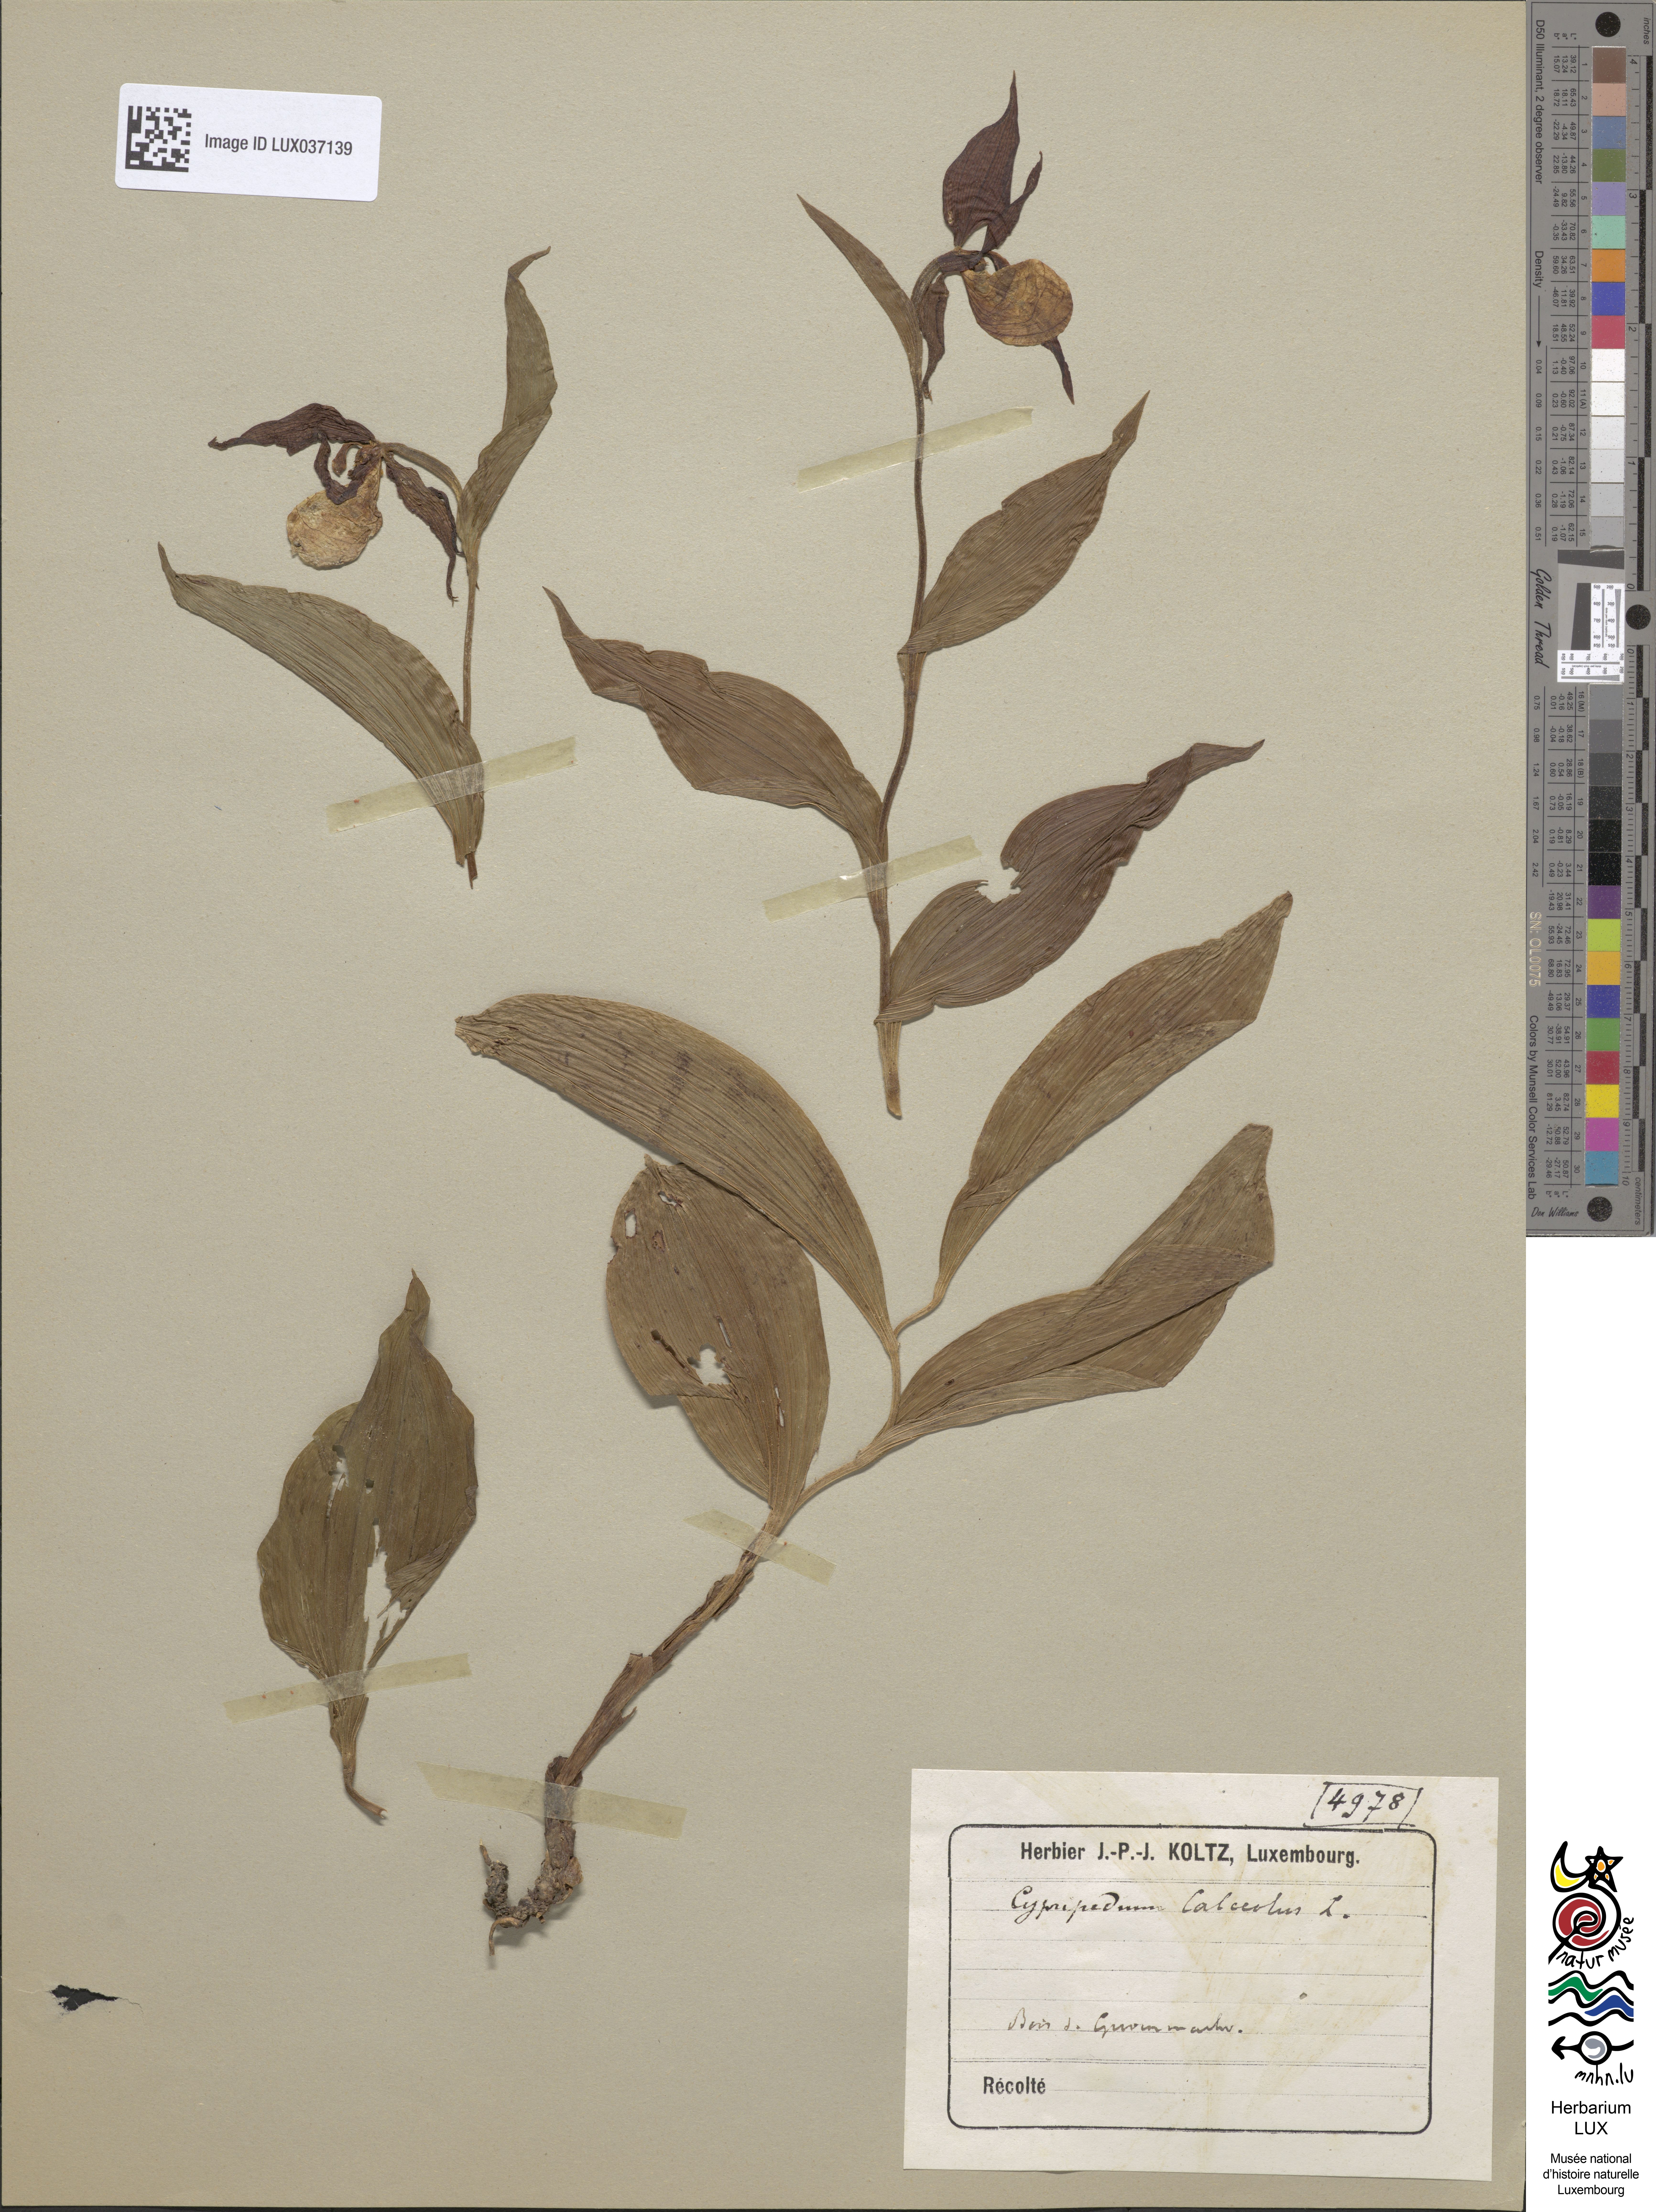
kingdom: Plantae
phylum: Tracheophyta
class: Liliopsida
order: Asparagales
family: Orchidaceae
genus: Cypripedium
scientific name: Cypripedium calceolus
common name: Lady's-slipper
